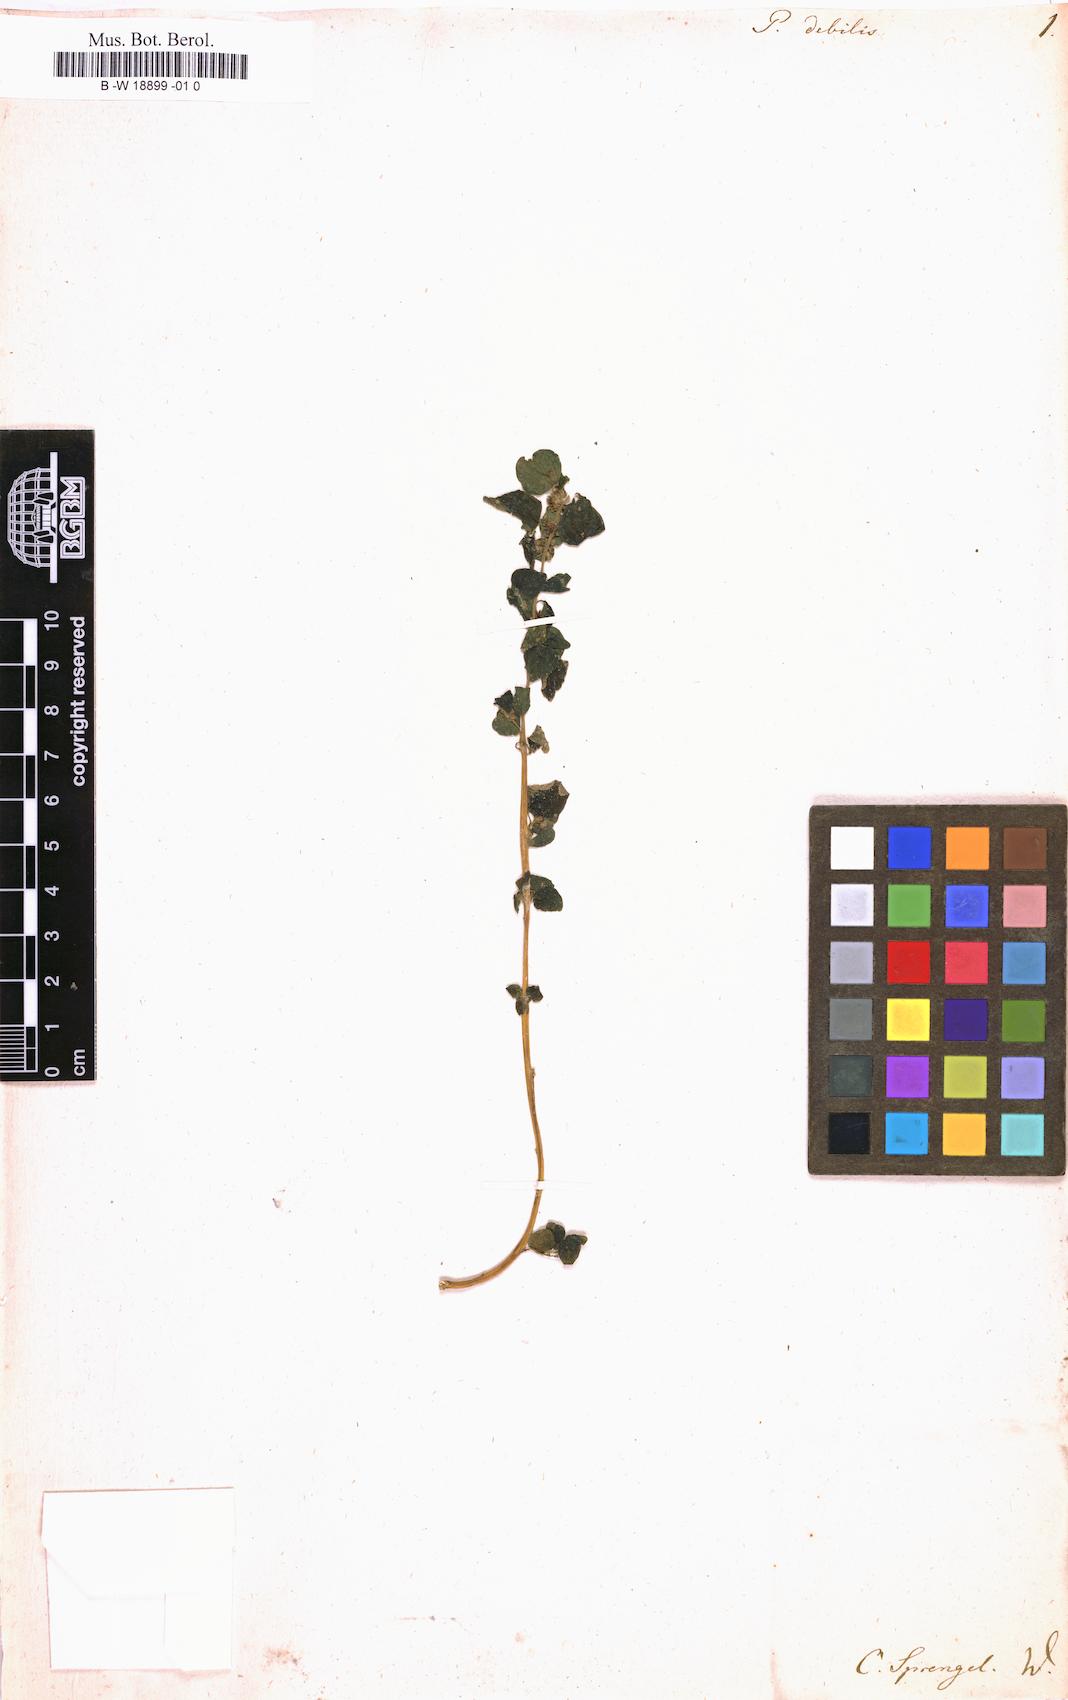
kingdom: Plantae
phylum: Tracheophyta
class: Magnoliopsida
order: Rosales
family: Urticaceae
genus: Parietaria
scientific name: Parietaria debilis
